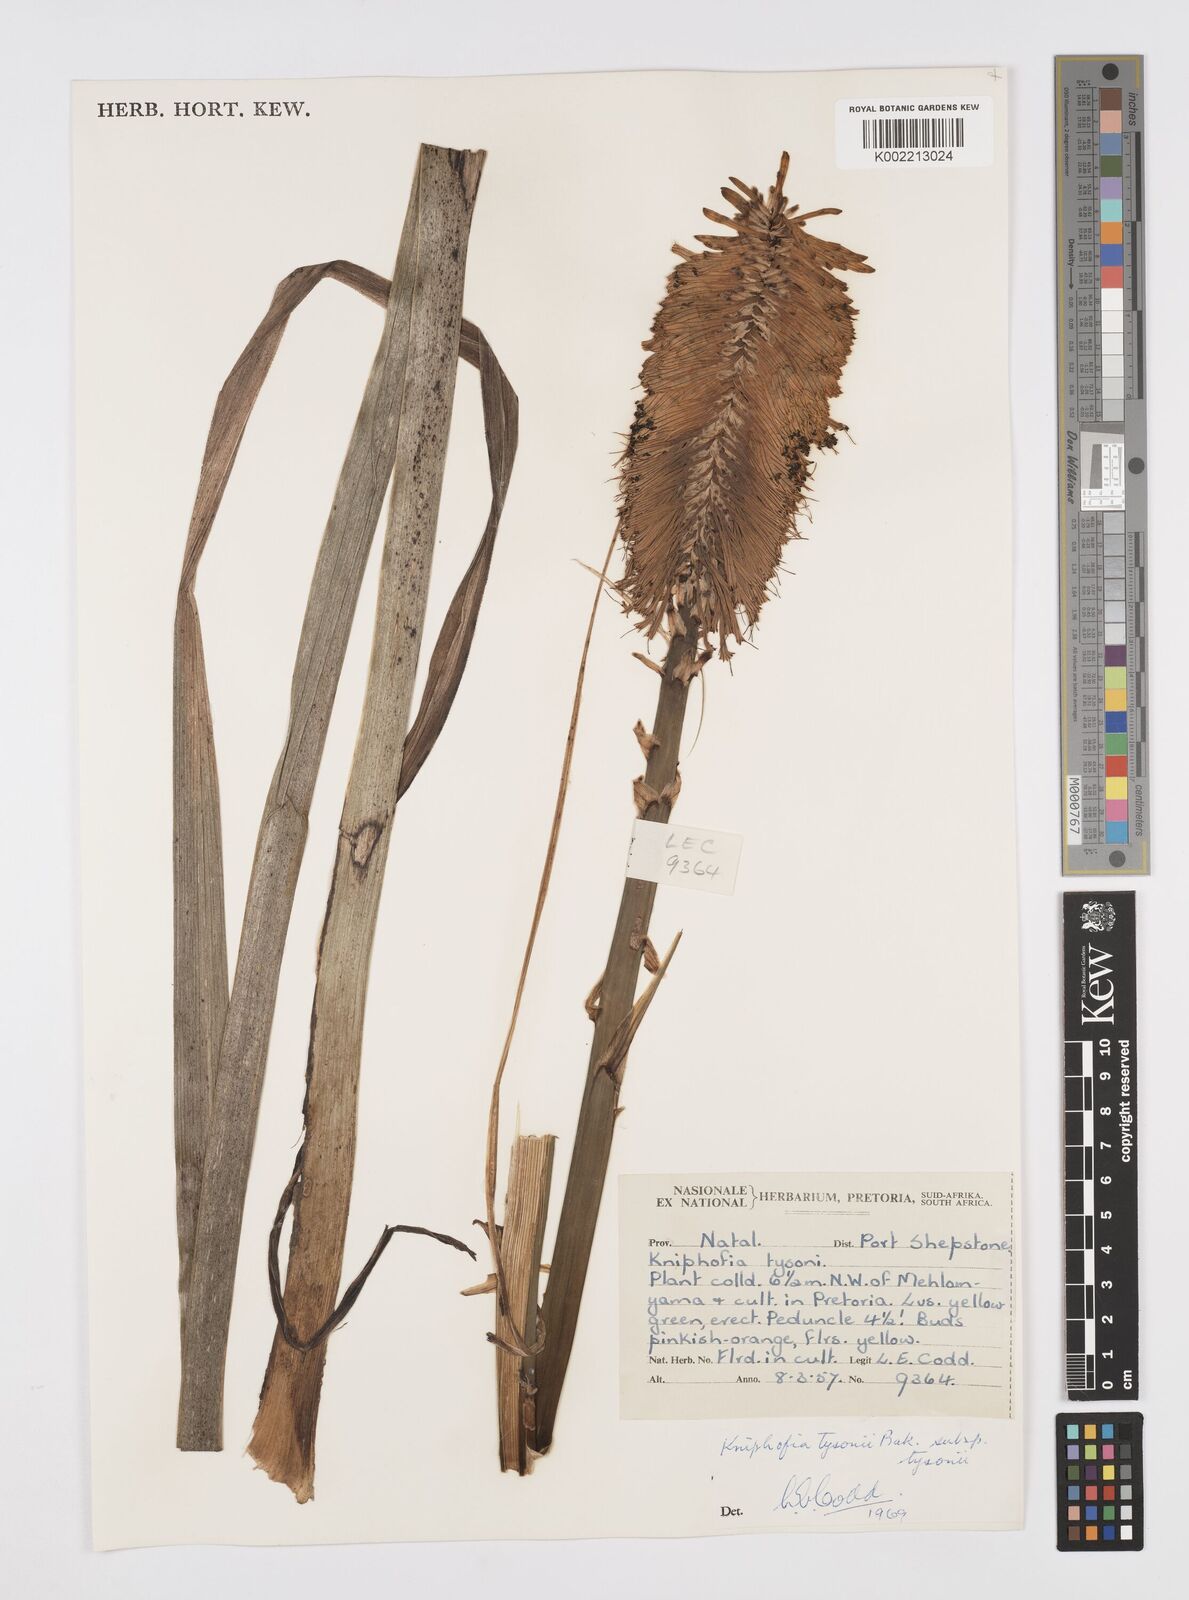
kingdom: Plantae
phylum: Tracheophyta
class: Liliopsida
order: Asparagales
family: Asphodelaceae
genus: Kniphofia
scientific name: Kniphofia tysonii
